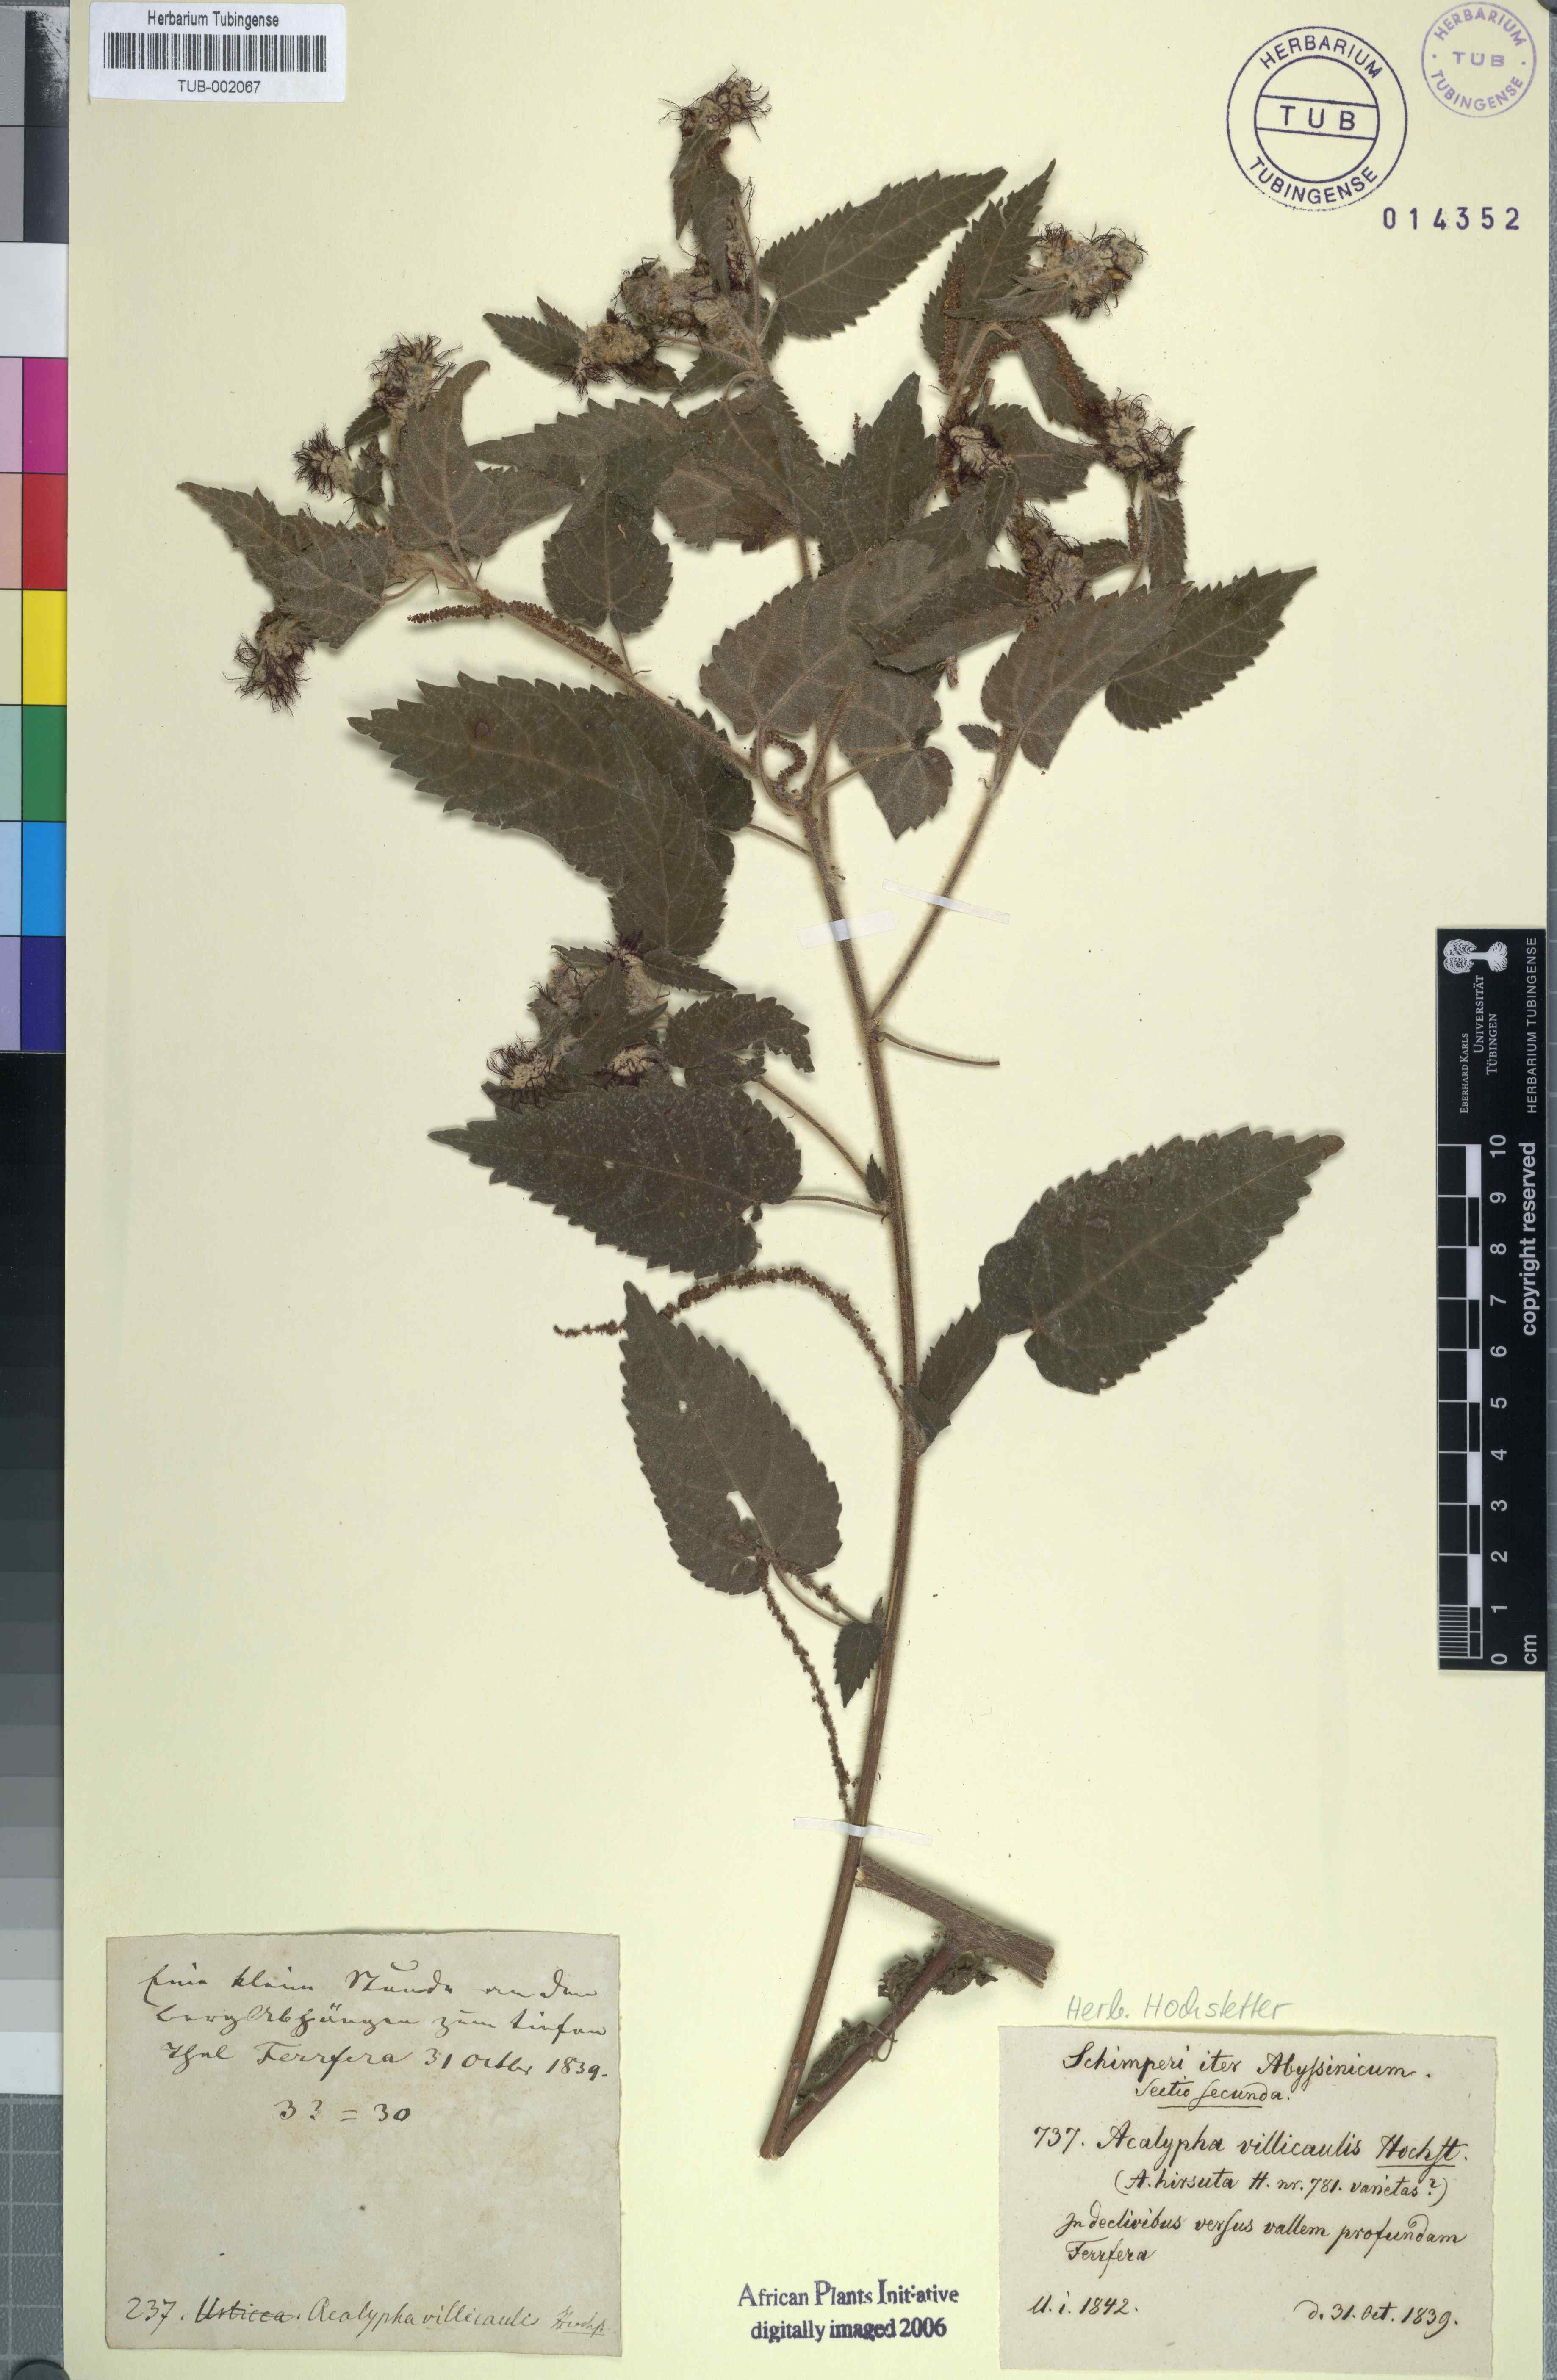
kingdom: Plantae
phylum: Tracheophyta
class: Magnoliopsida
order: Malpighiales
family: Euphorbiaceae
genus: Acalypha
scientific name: Acalypha petiolaris
